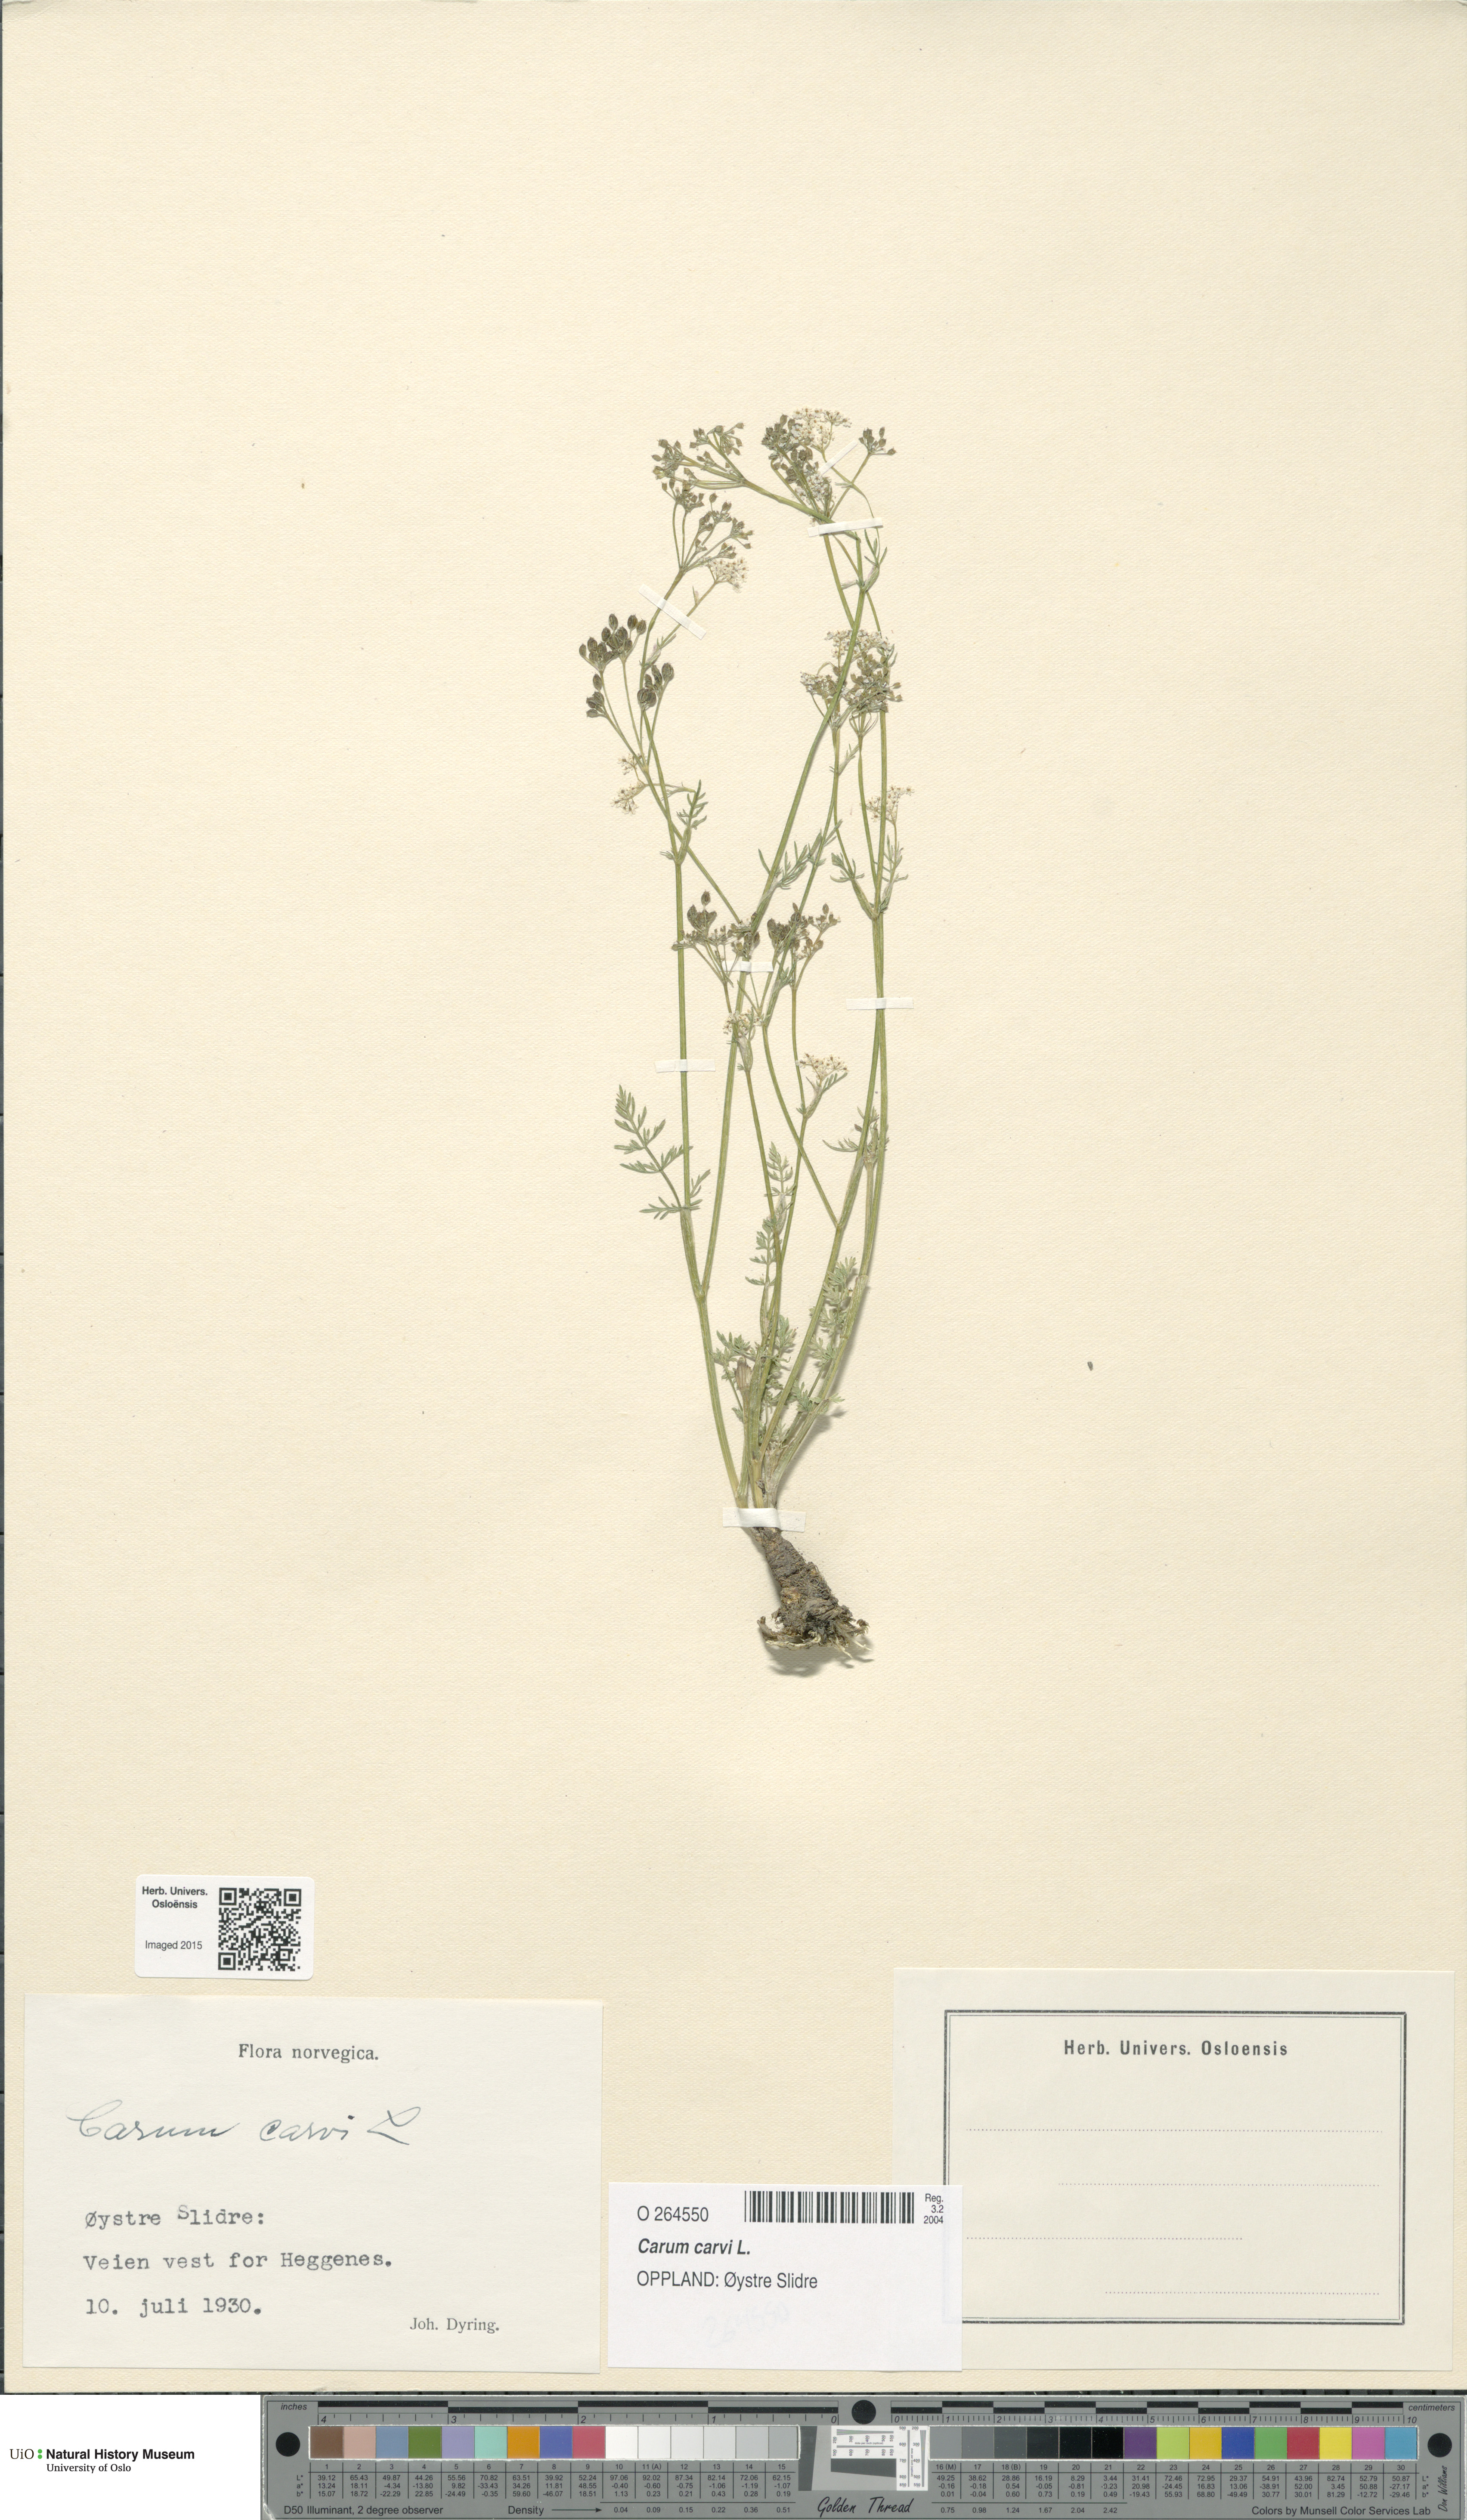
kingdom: Plantae
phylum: Tracheophyta
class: Magnoliopsida
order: Apiales
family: Apiaceae
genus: Carum
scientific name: Carum carvi
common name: Caraway
